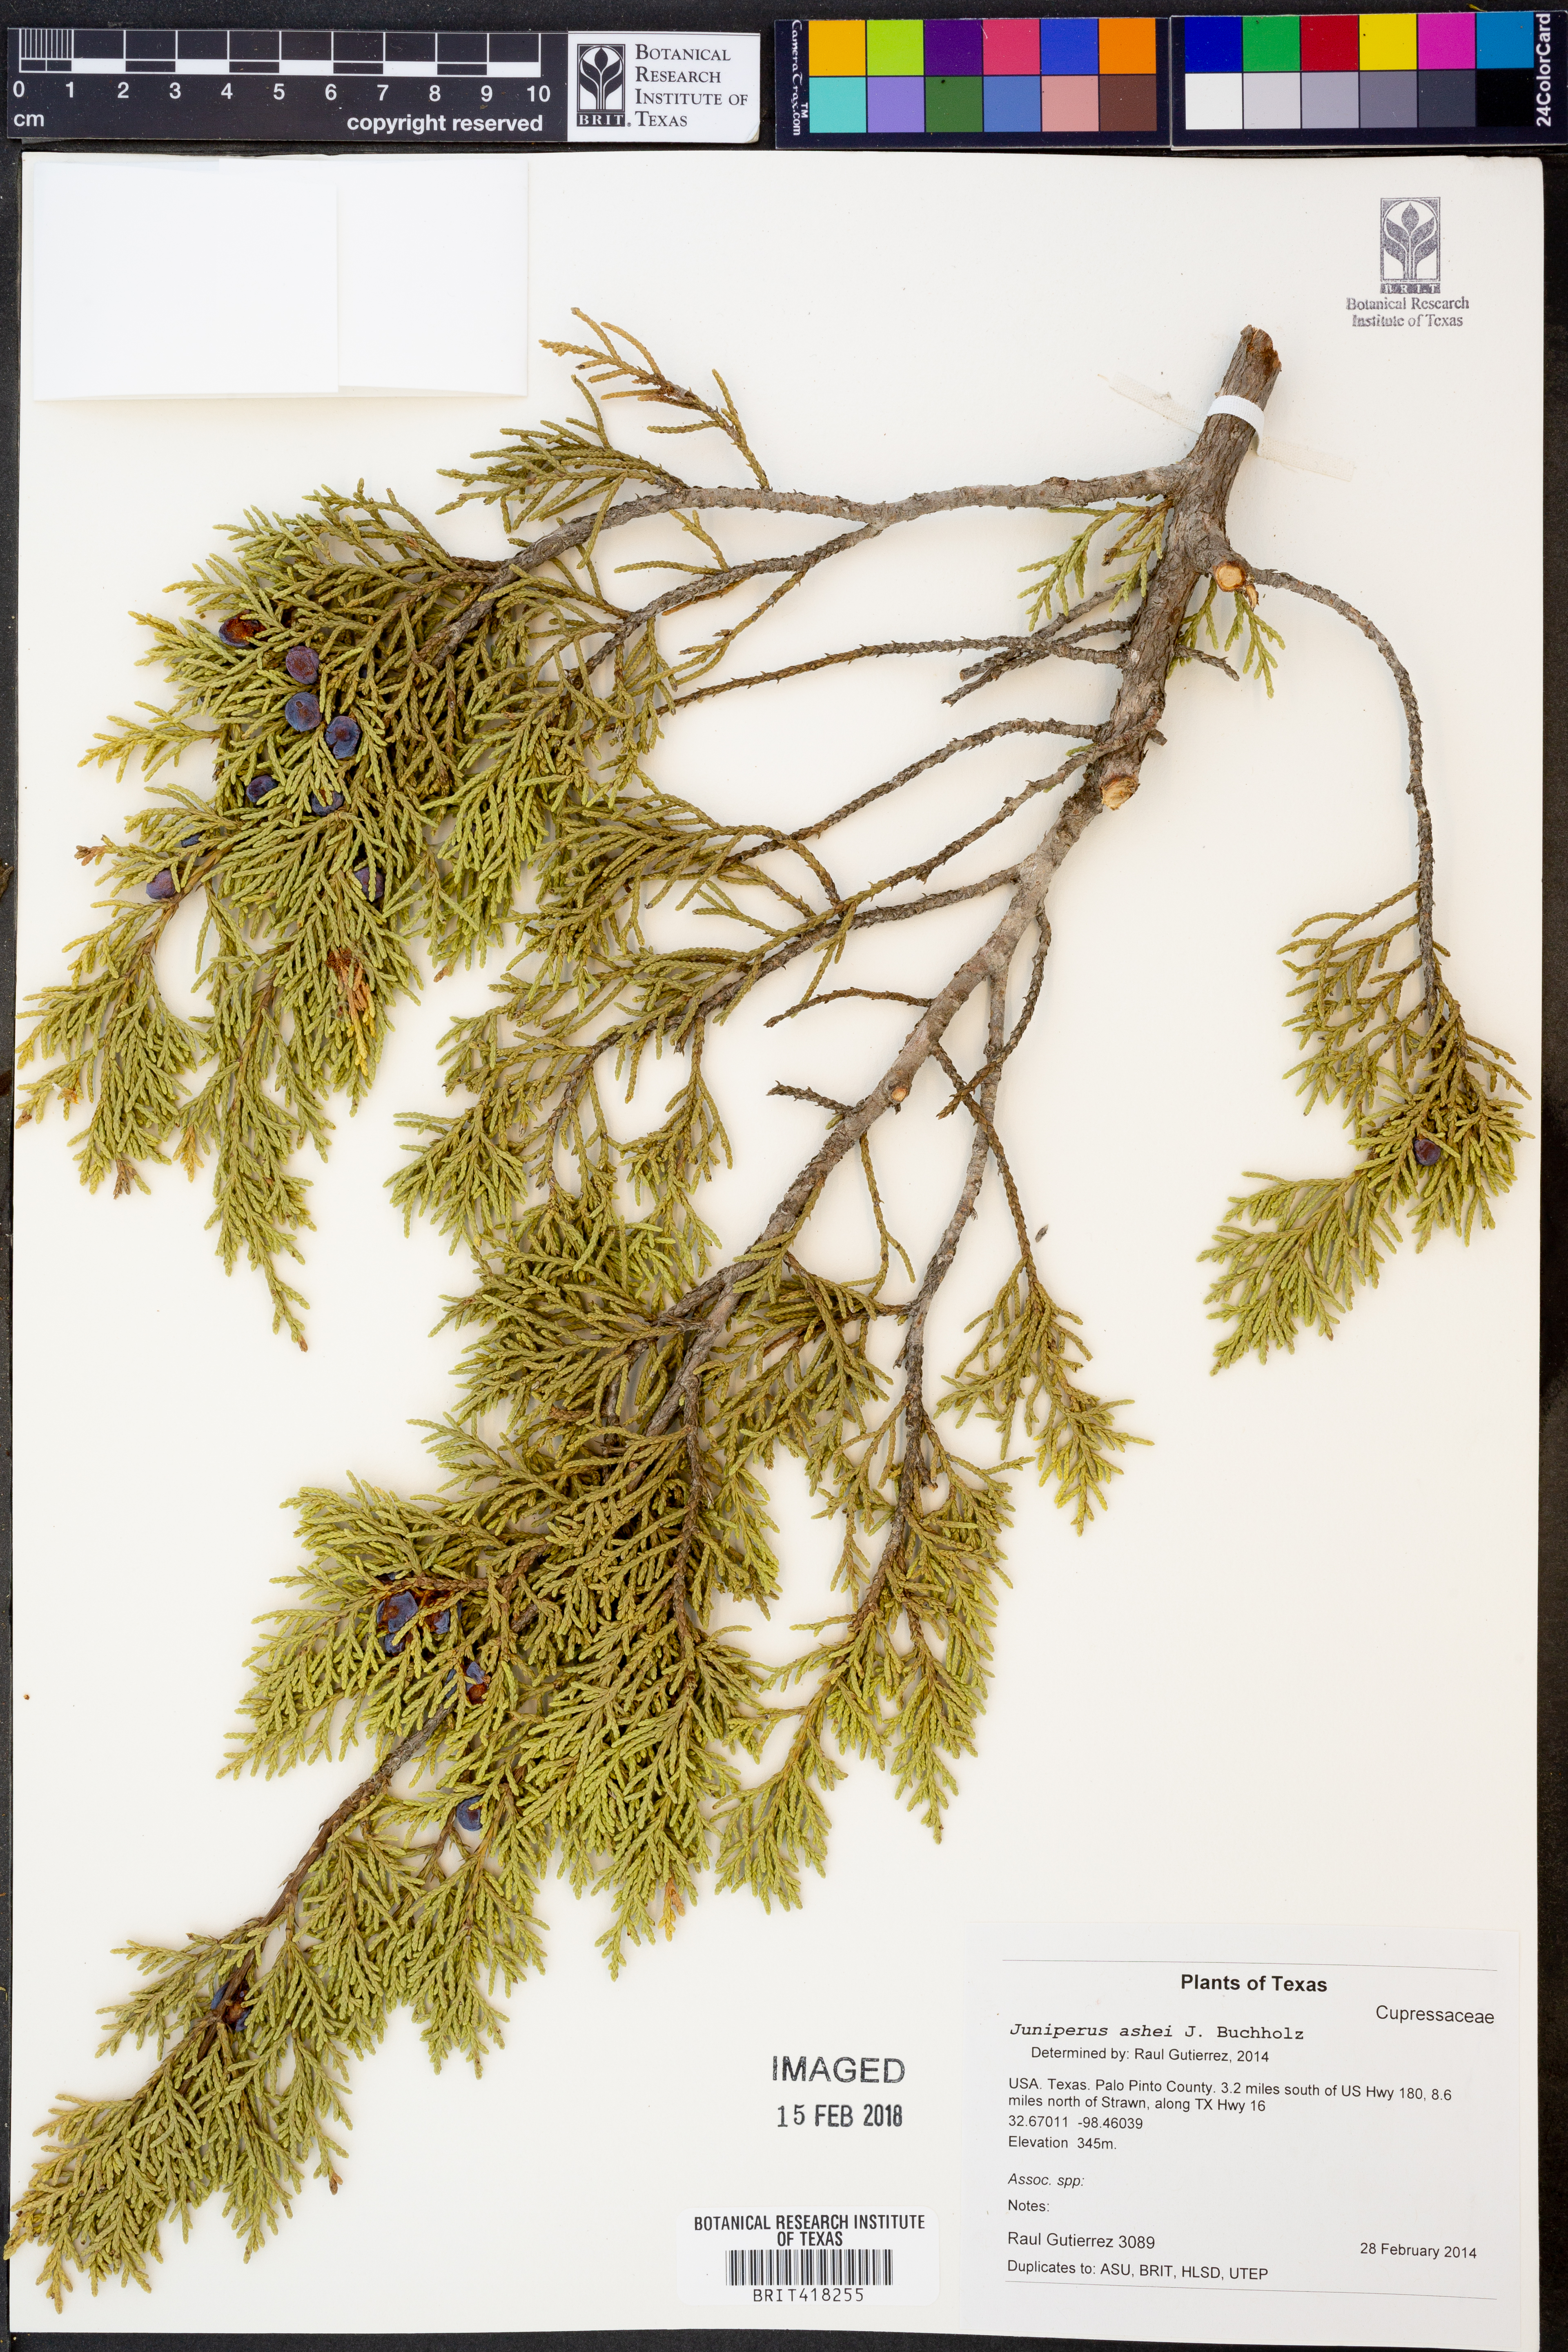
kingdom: Plantae
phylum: Tracheophyta
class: Pinopsida
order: Pinales
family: Cupressaceae
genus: Juniperus
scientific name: Juniperus ashei
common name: Mexican juniper
